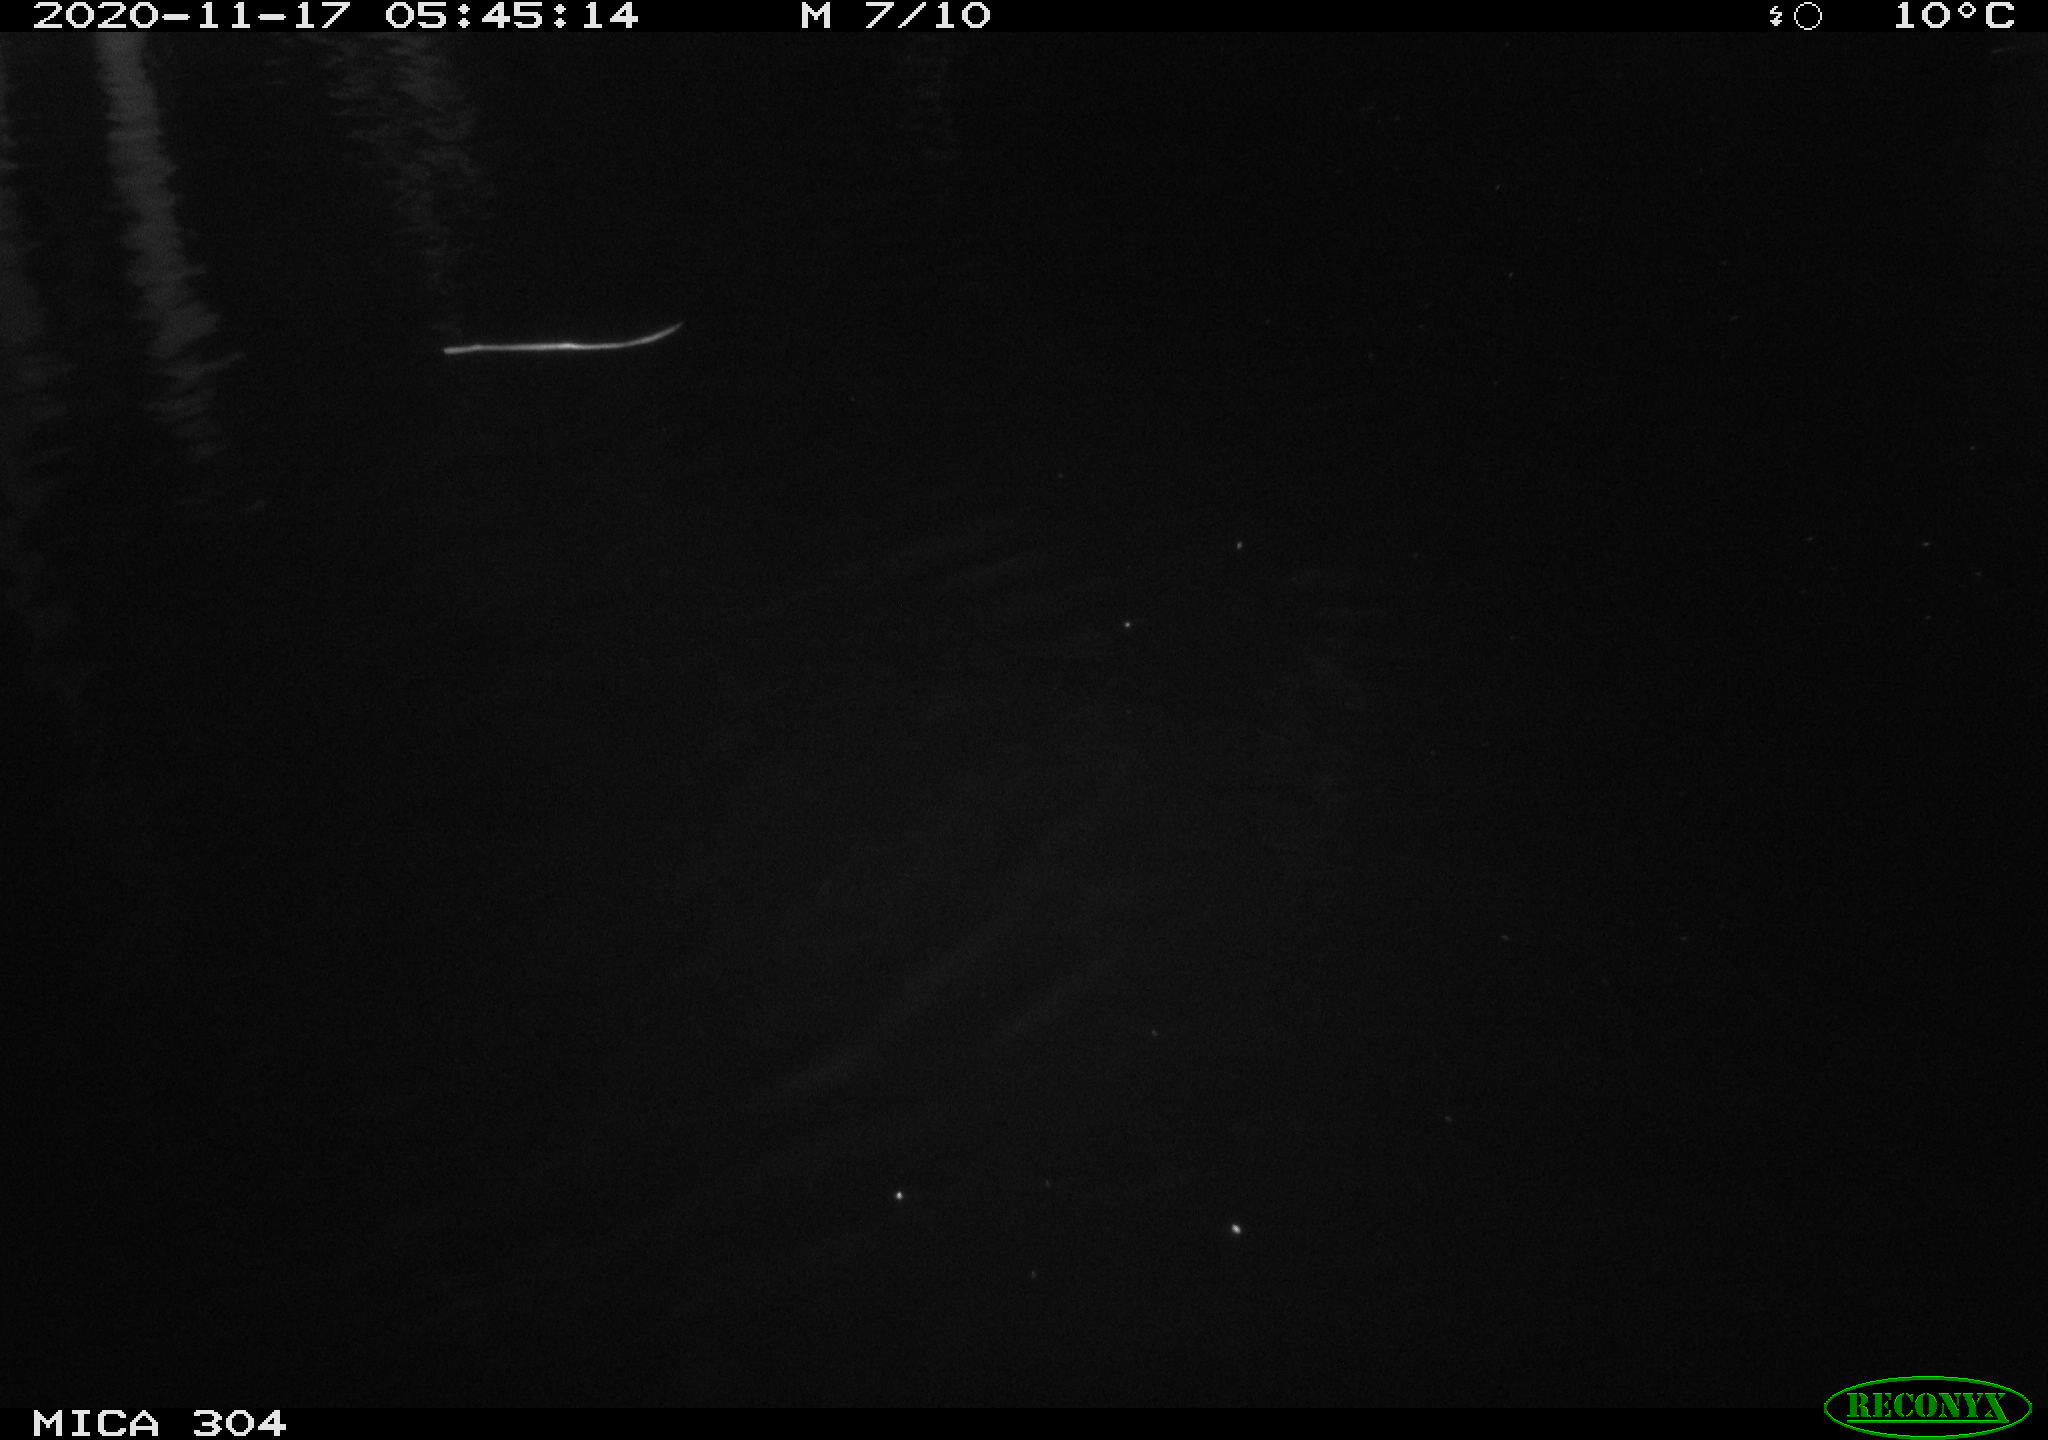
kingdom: Animalia
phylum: Chordata
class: Mammalia
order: Rodentia
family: Muridae
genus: Rattus
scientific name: Rattus norvegicus
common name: Brown rat
